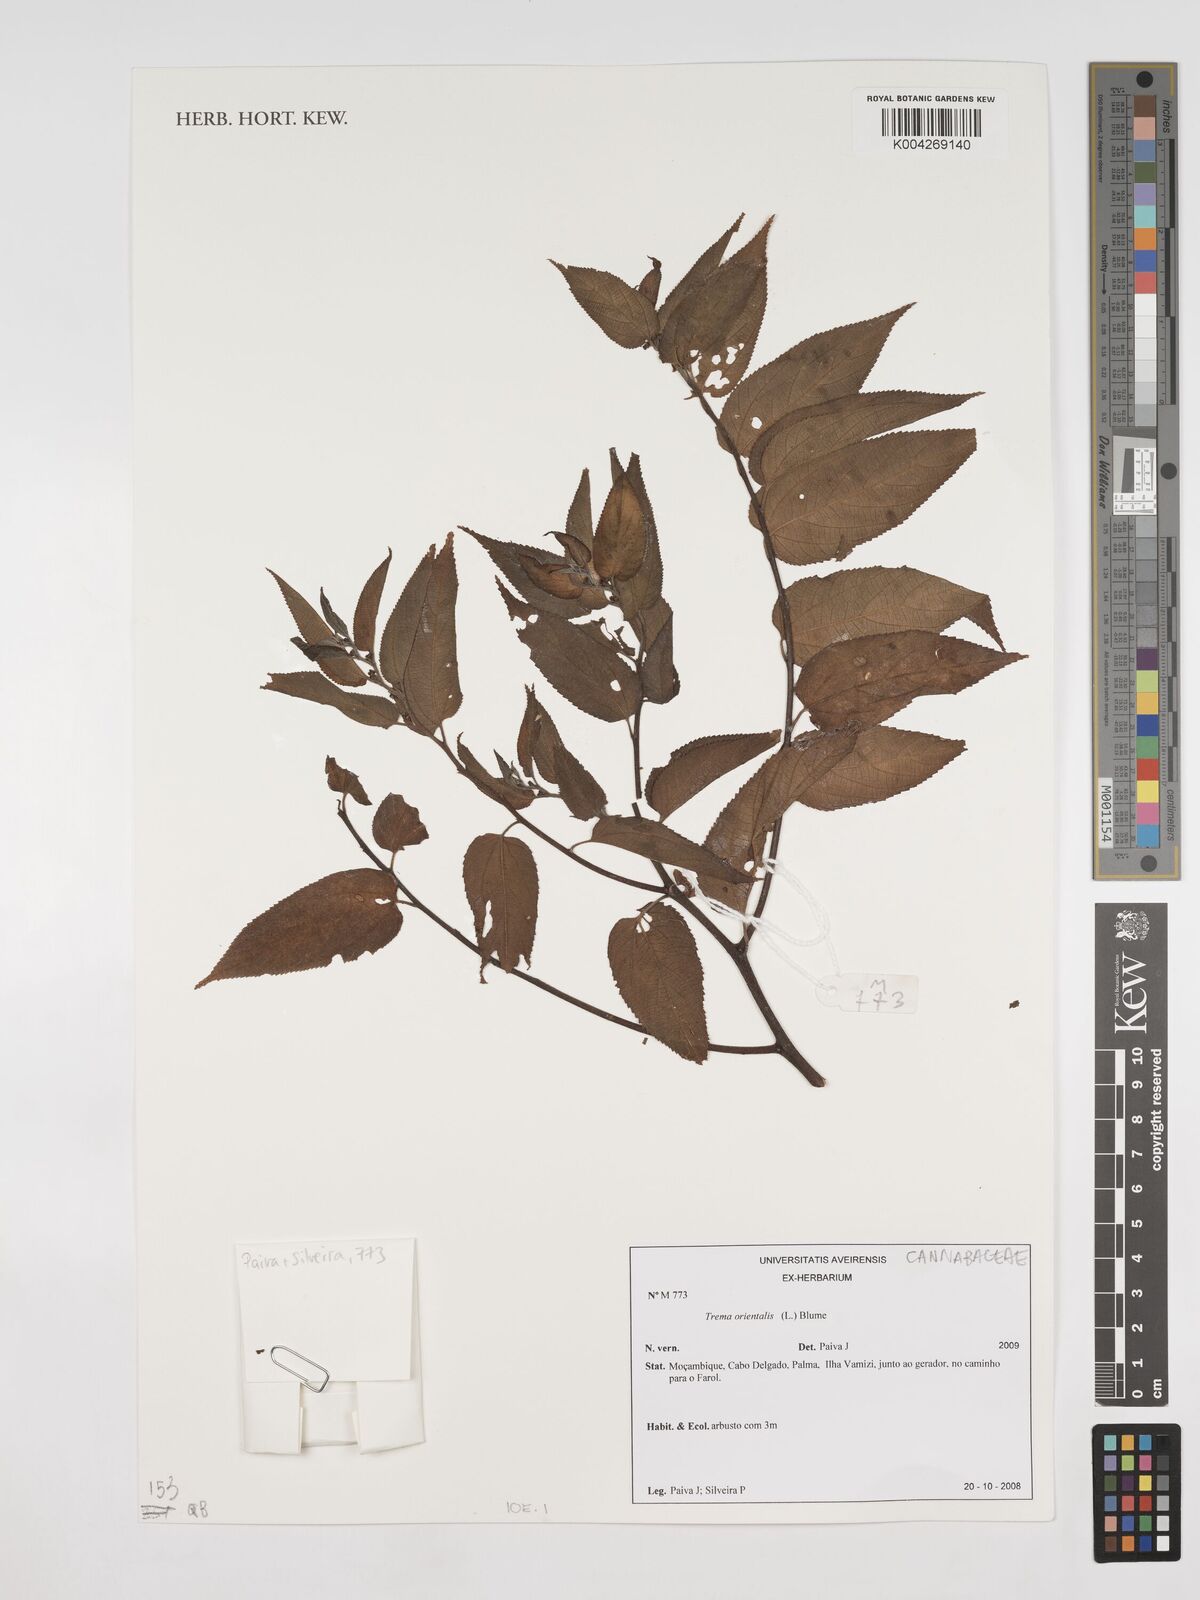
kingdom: Plantae
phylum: Tracheophyta
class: Magnoliopsida
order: Rosales
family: Cannabaceae
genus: Trema
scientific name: Trema orientale
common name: Indian charcoal tree
